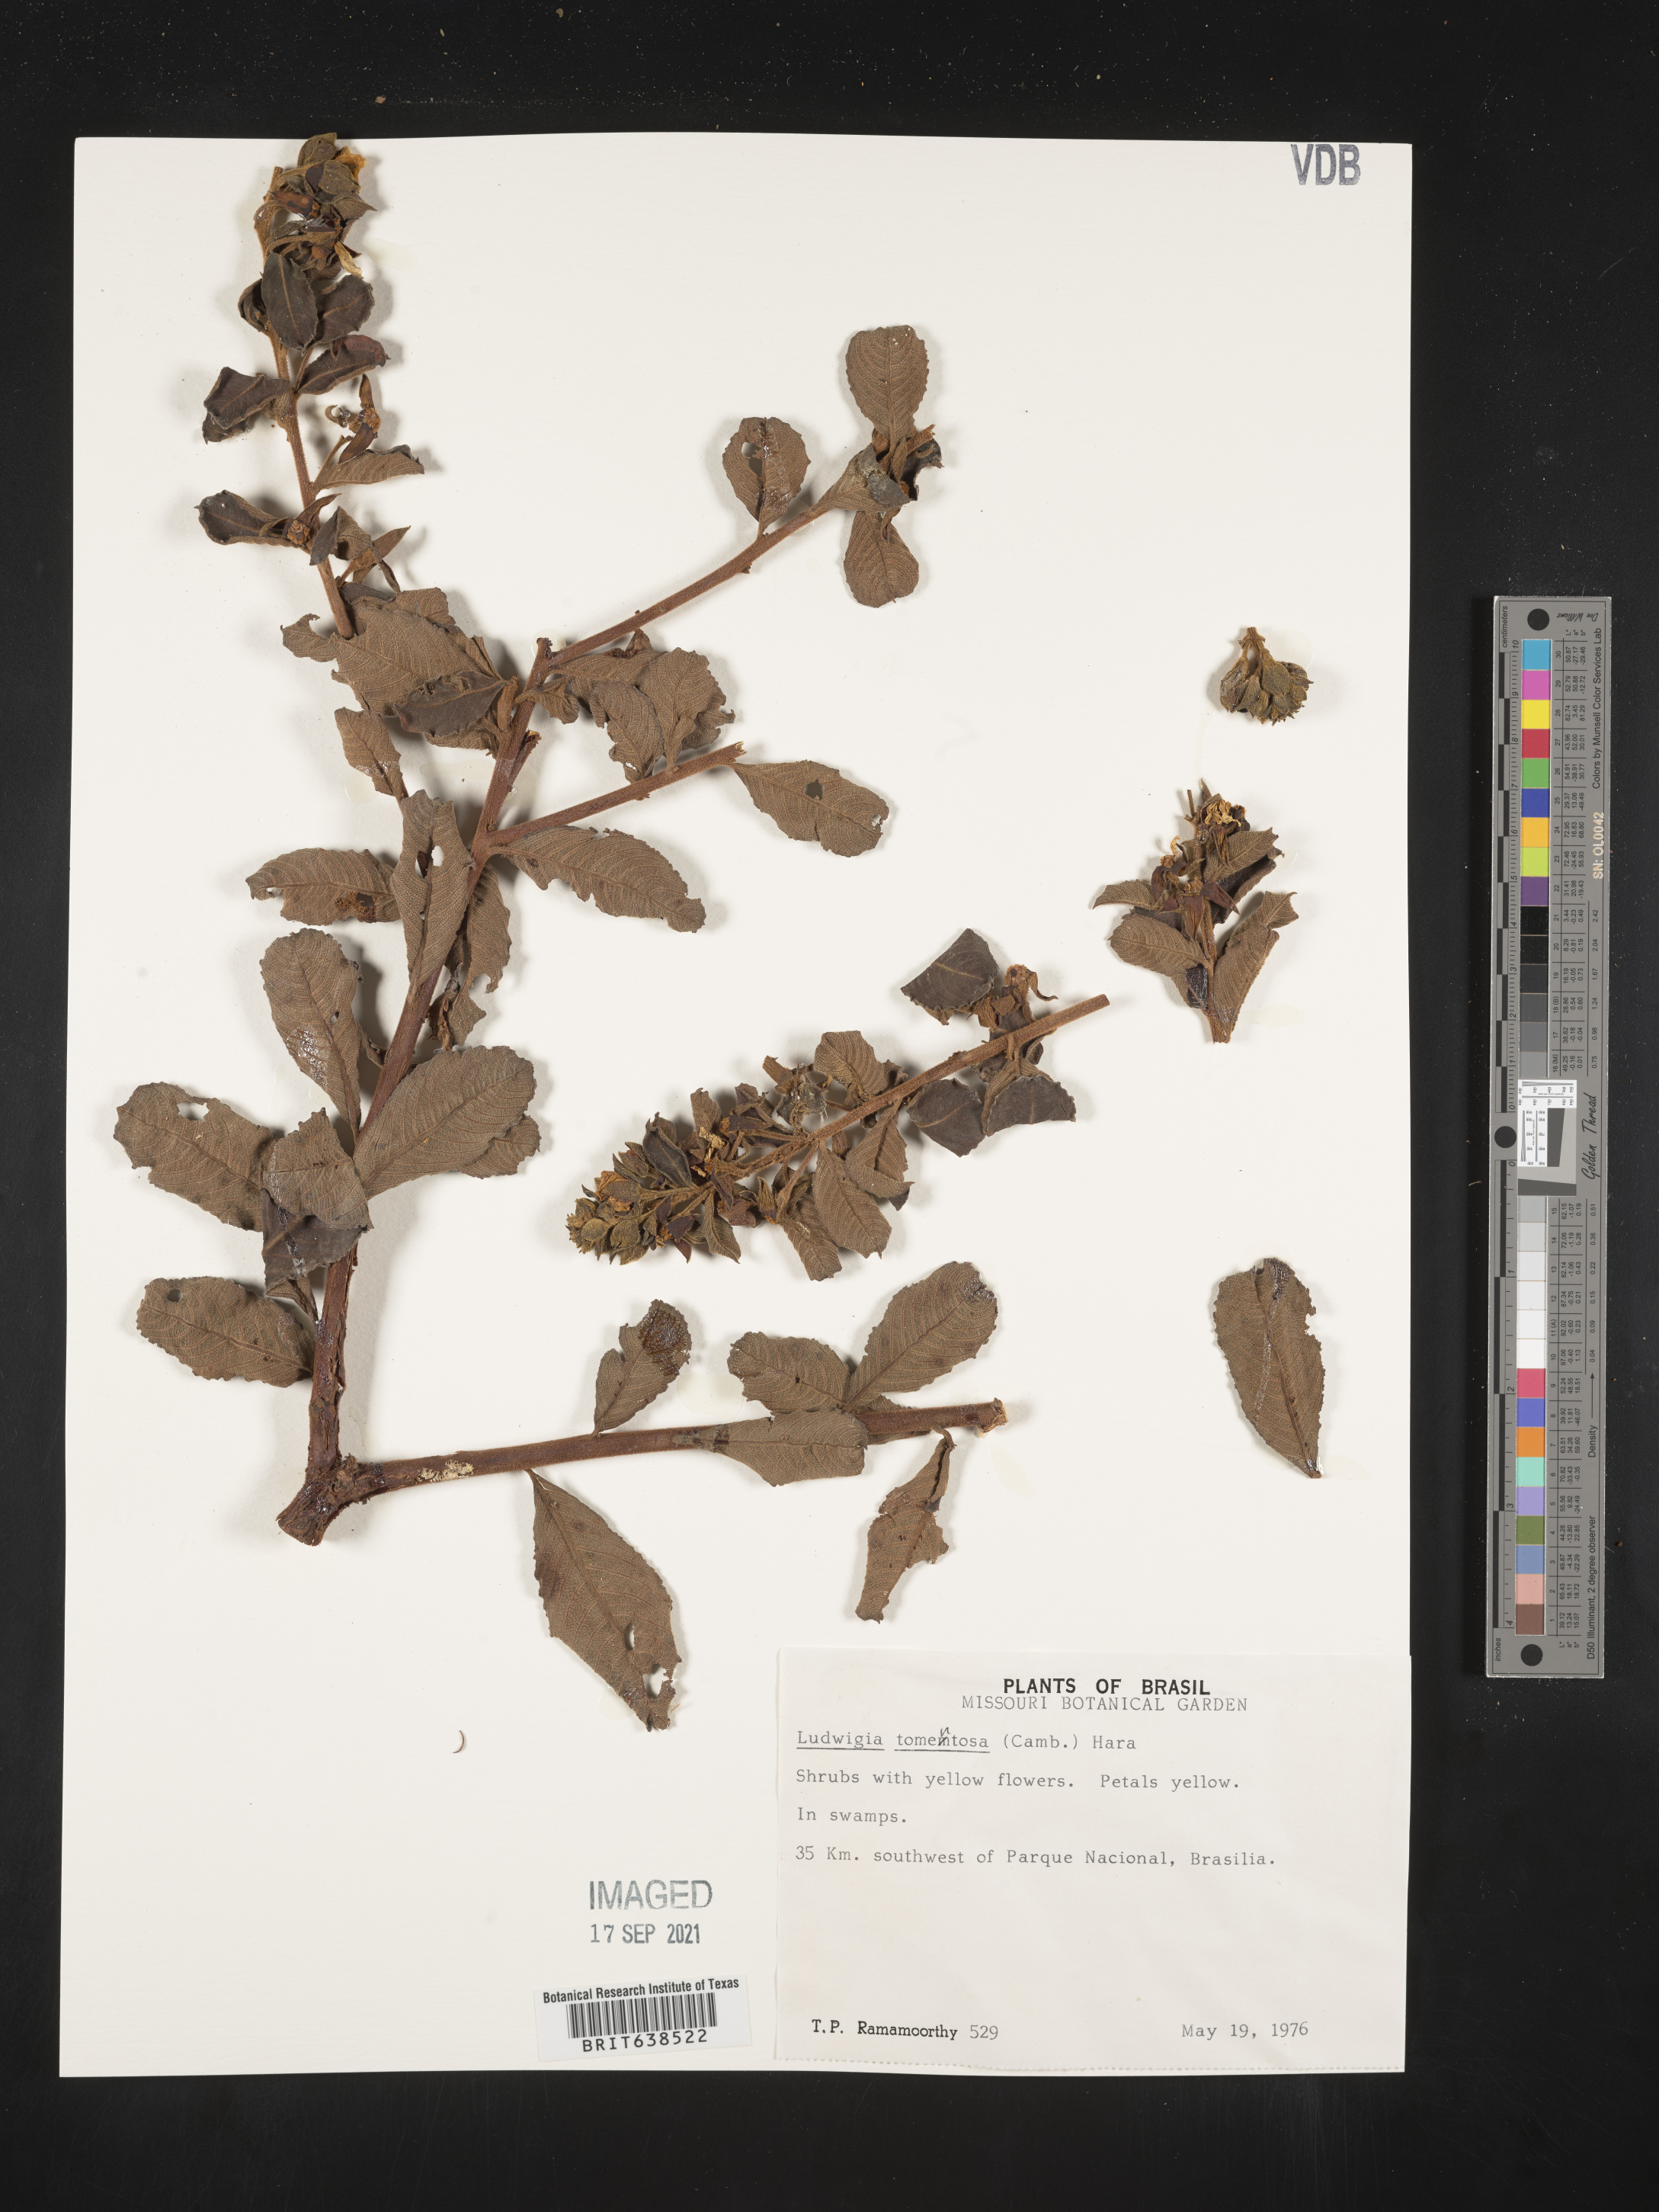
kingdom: Plantae
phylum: Tracheophyta
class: Magnoliopsida
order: Myrtales
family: Onagraceae
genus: Ludwigia
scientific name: Ludwigia
